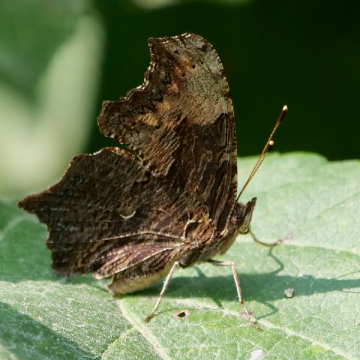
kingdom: Animalia
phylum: Arthropoda
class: Insecta
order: Lepidoptera
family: Nymphalidae
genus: Polygonia
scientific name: Polygonia progne
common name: Gray Comma
